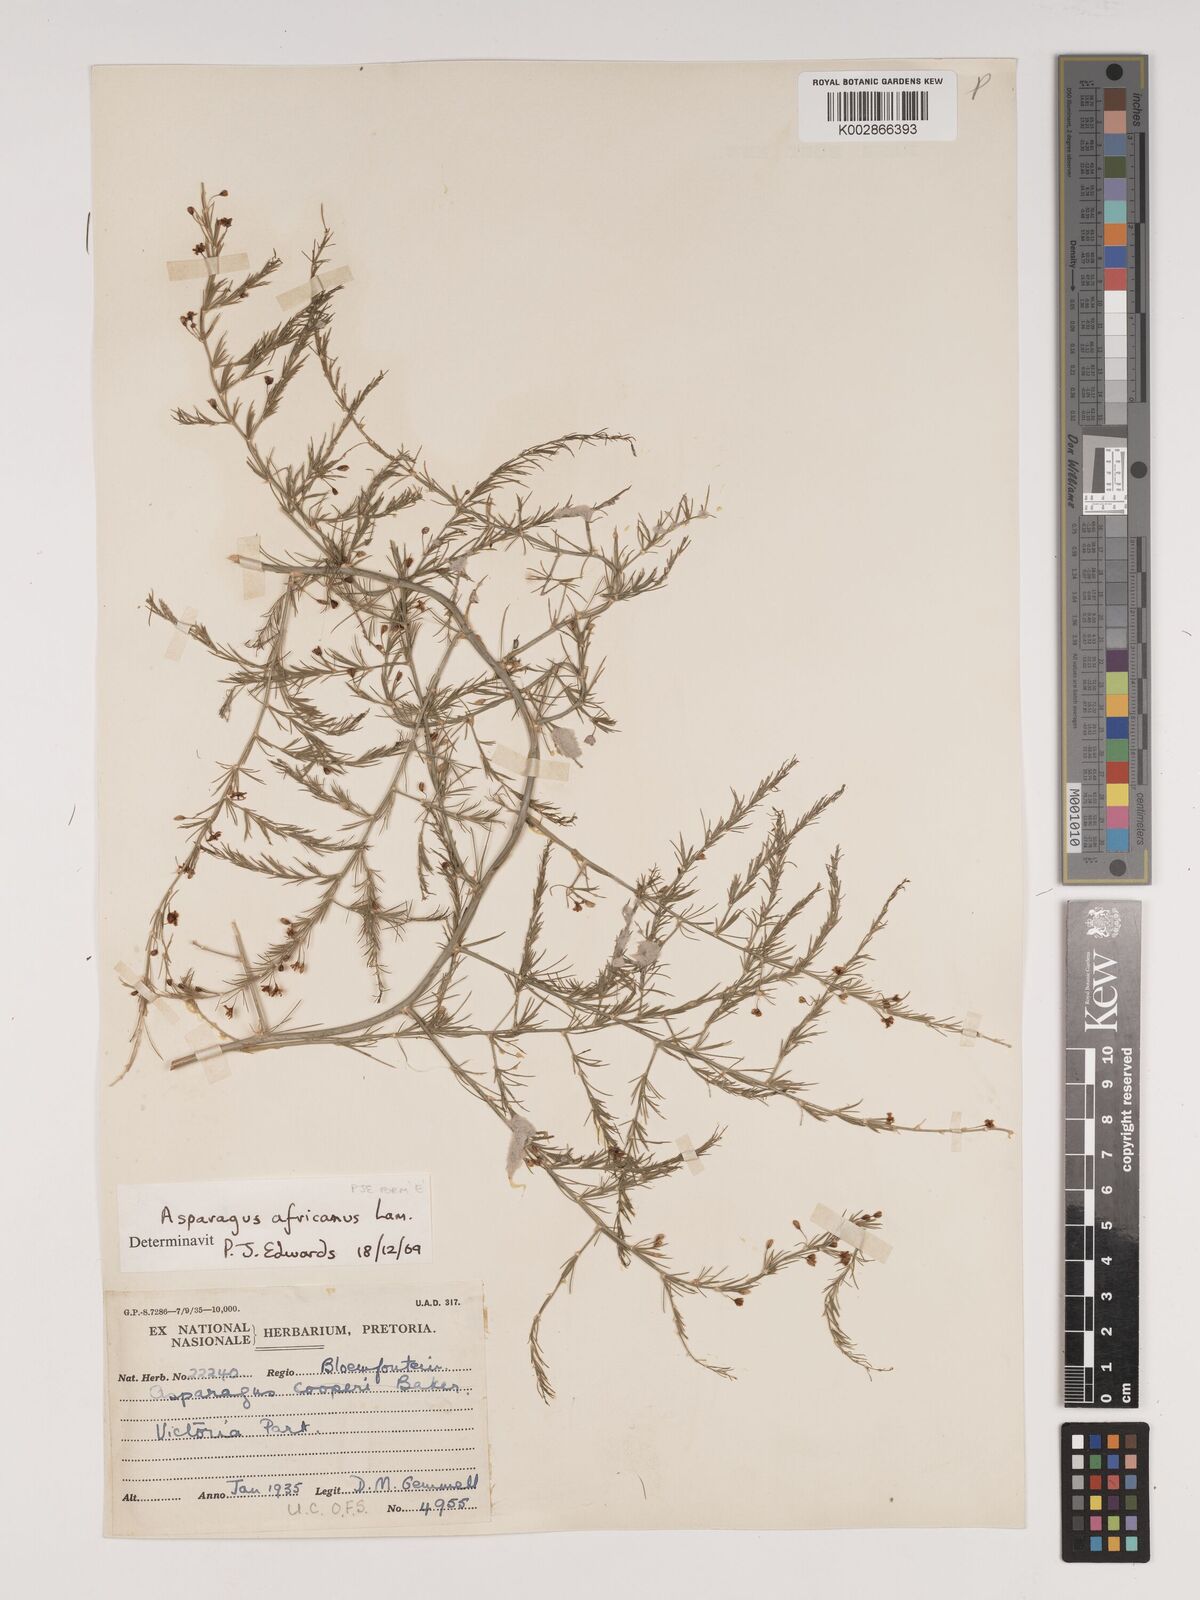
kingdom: Plantae
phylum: Tracheophyta
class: Liliopsida
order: Asparagales
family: Asparagaceae
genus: Asparagus
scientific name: Asparagus africanus
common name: Asparagus-fern
